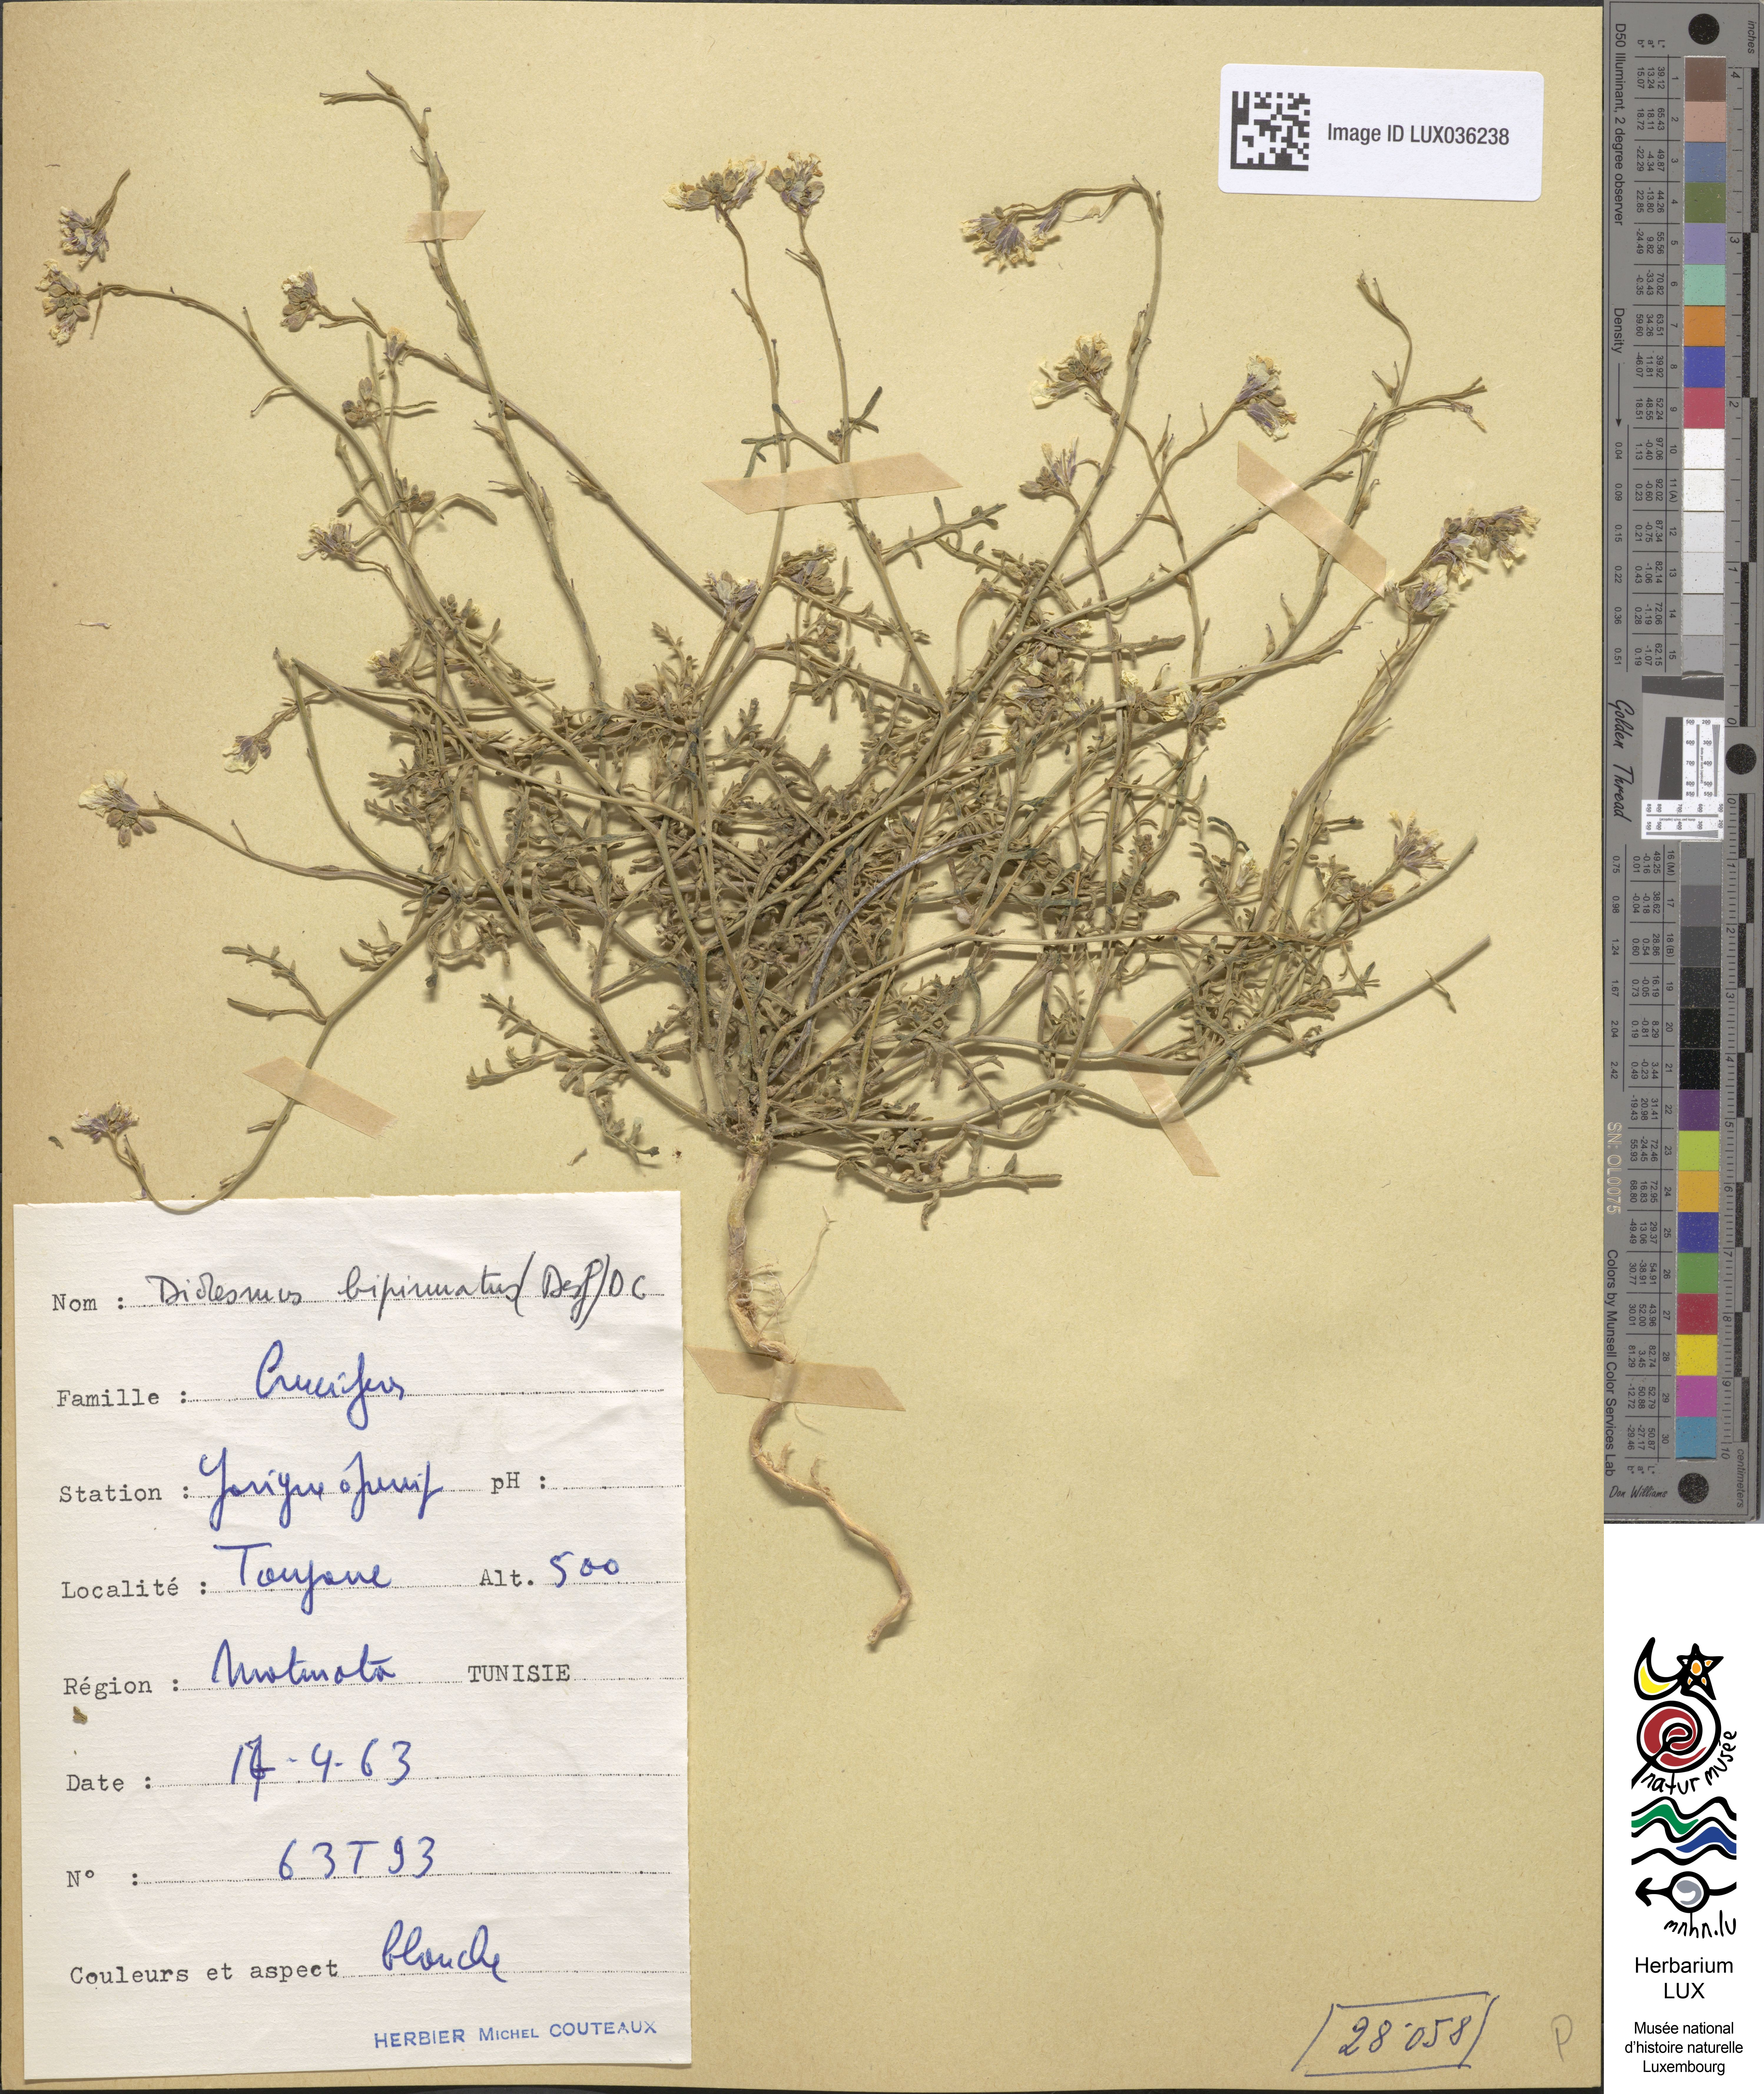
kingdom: Plantae
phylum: Tracheophyta
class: Magnoliopsida
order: Brassicales
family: Brassicaceae
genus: Didesmus
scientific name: Didesmus bipinnatus
